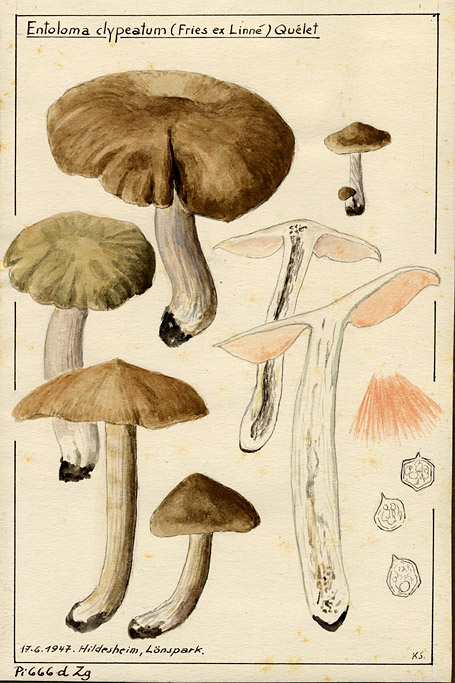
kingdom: Fungi
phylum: Basidiomycota
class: Agaricomycetes
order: Agaricales
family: Entolomataceae
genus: Entoloma
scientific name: Entoloma clypeatum
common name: Shield pinkgill
